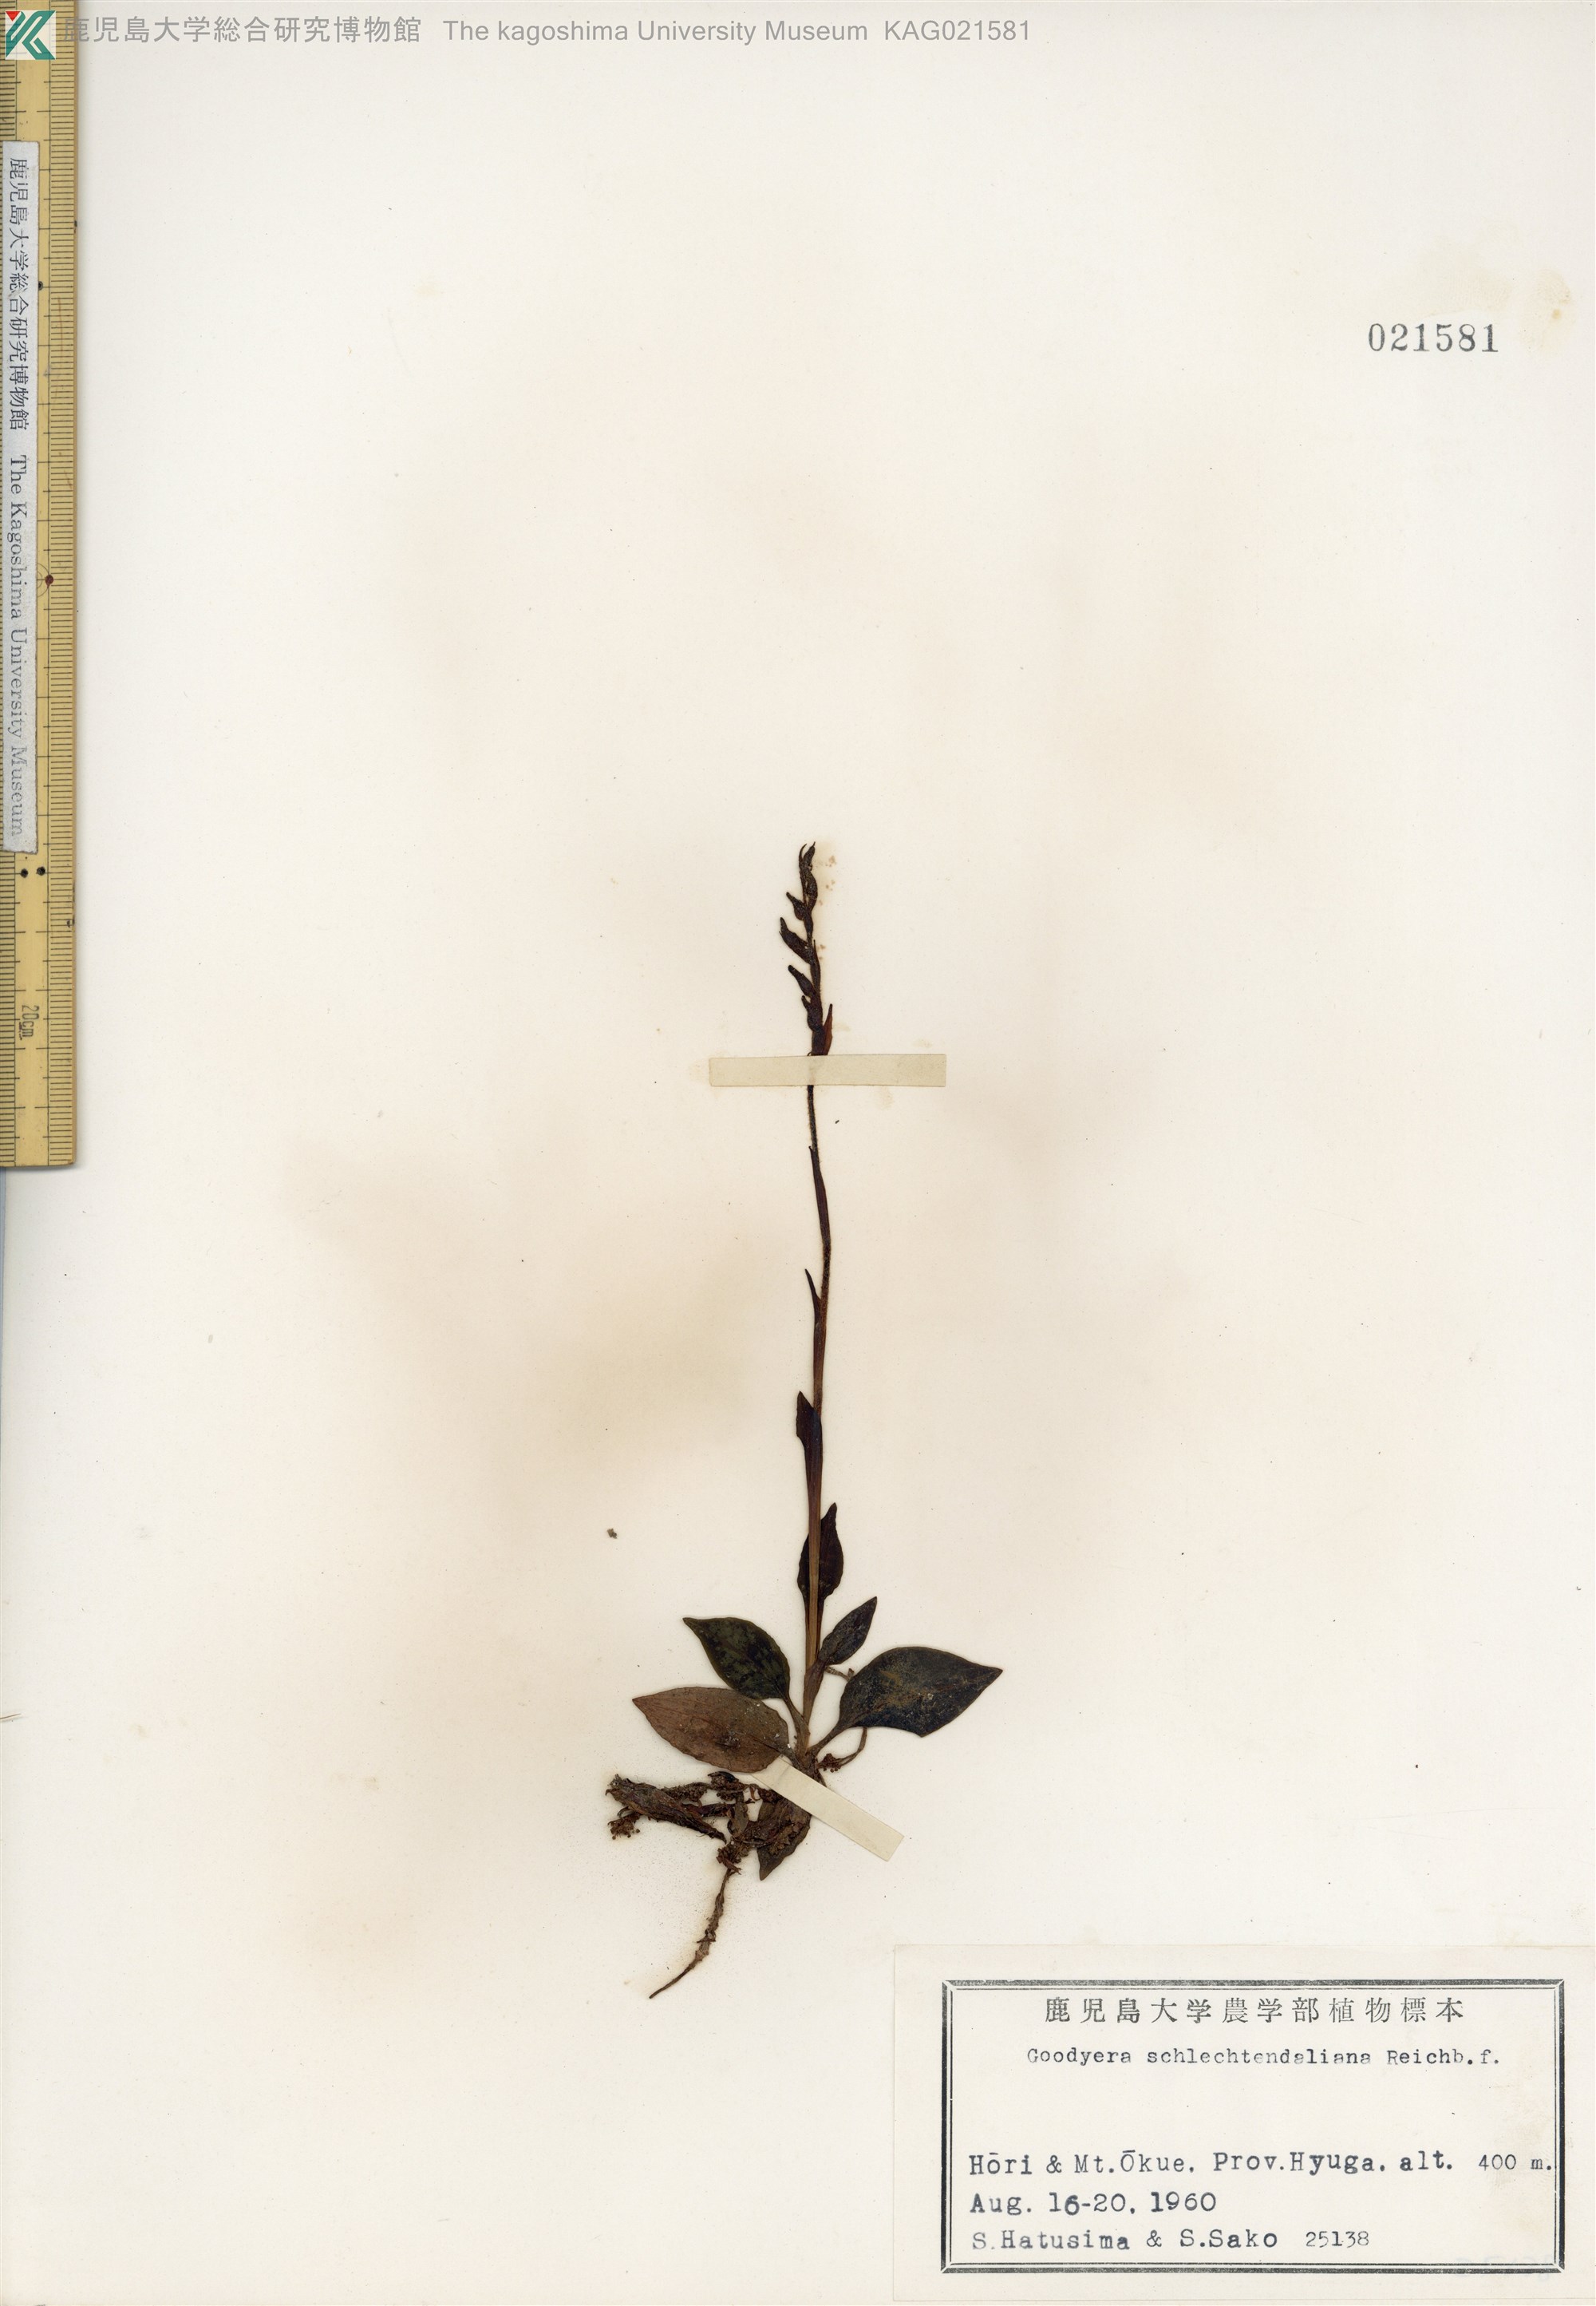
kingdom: Plantae
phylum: Tracheophyta
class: Liliopsida
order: Asparagales
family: Orchidaceae
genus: Goodyera
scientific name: Goodyera schlechtendaliana
